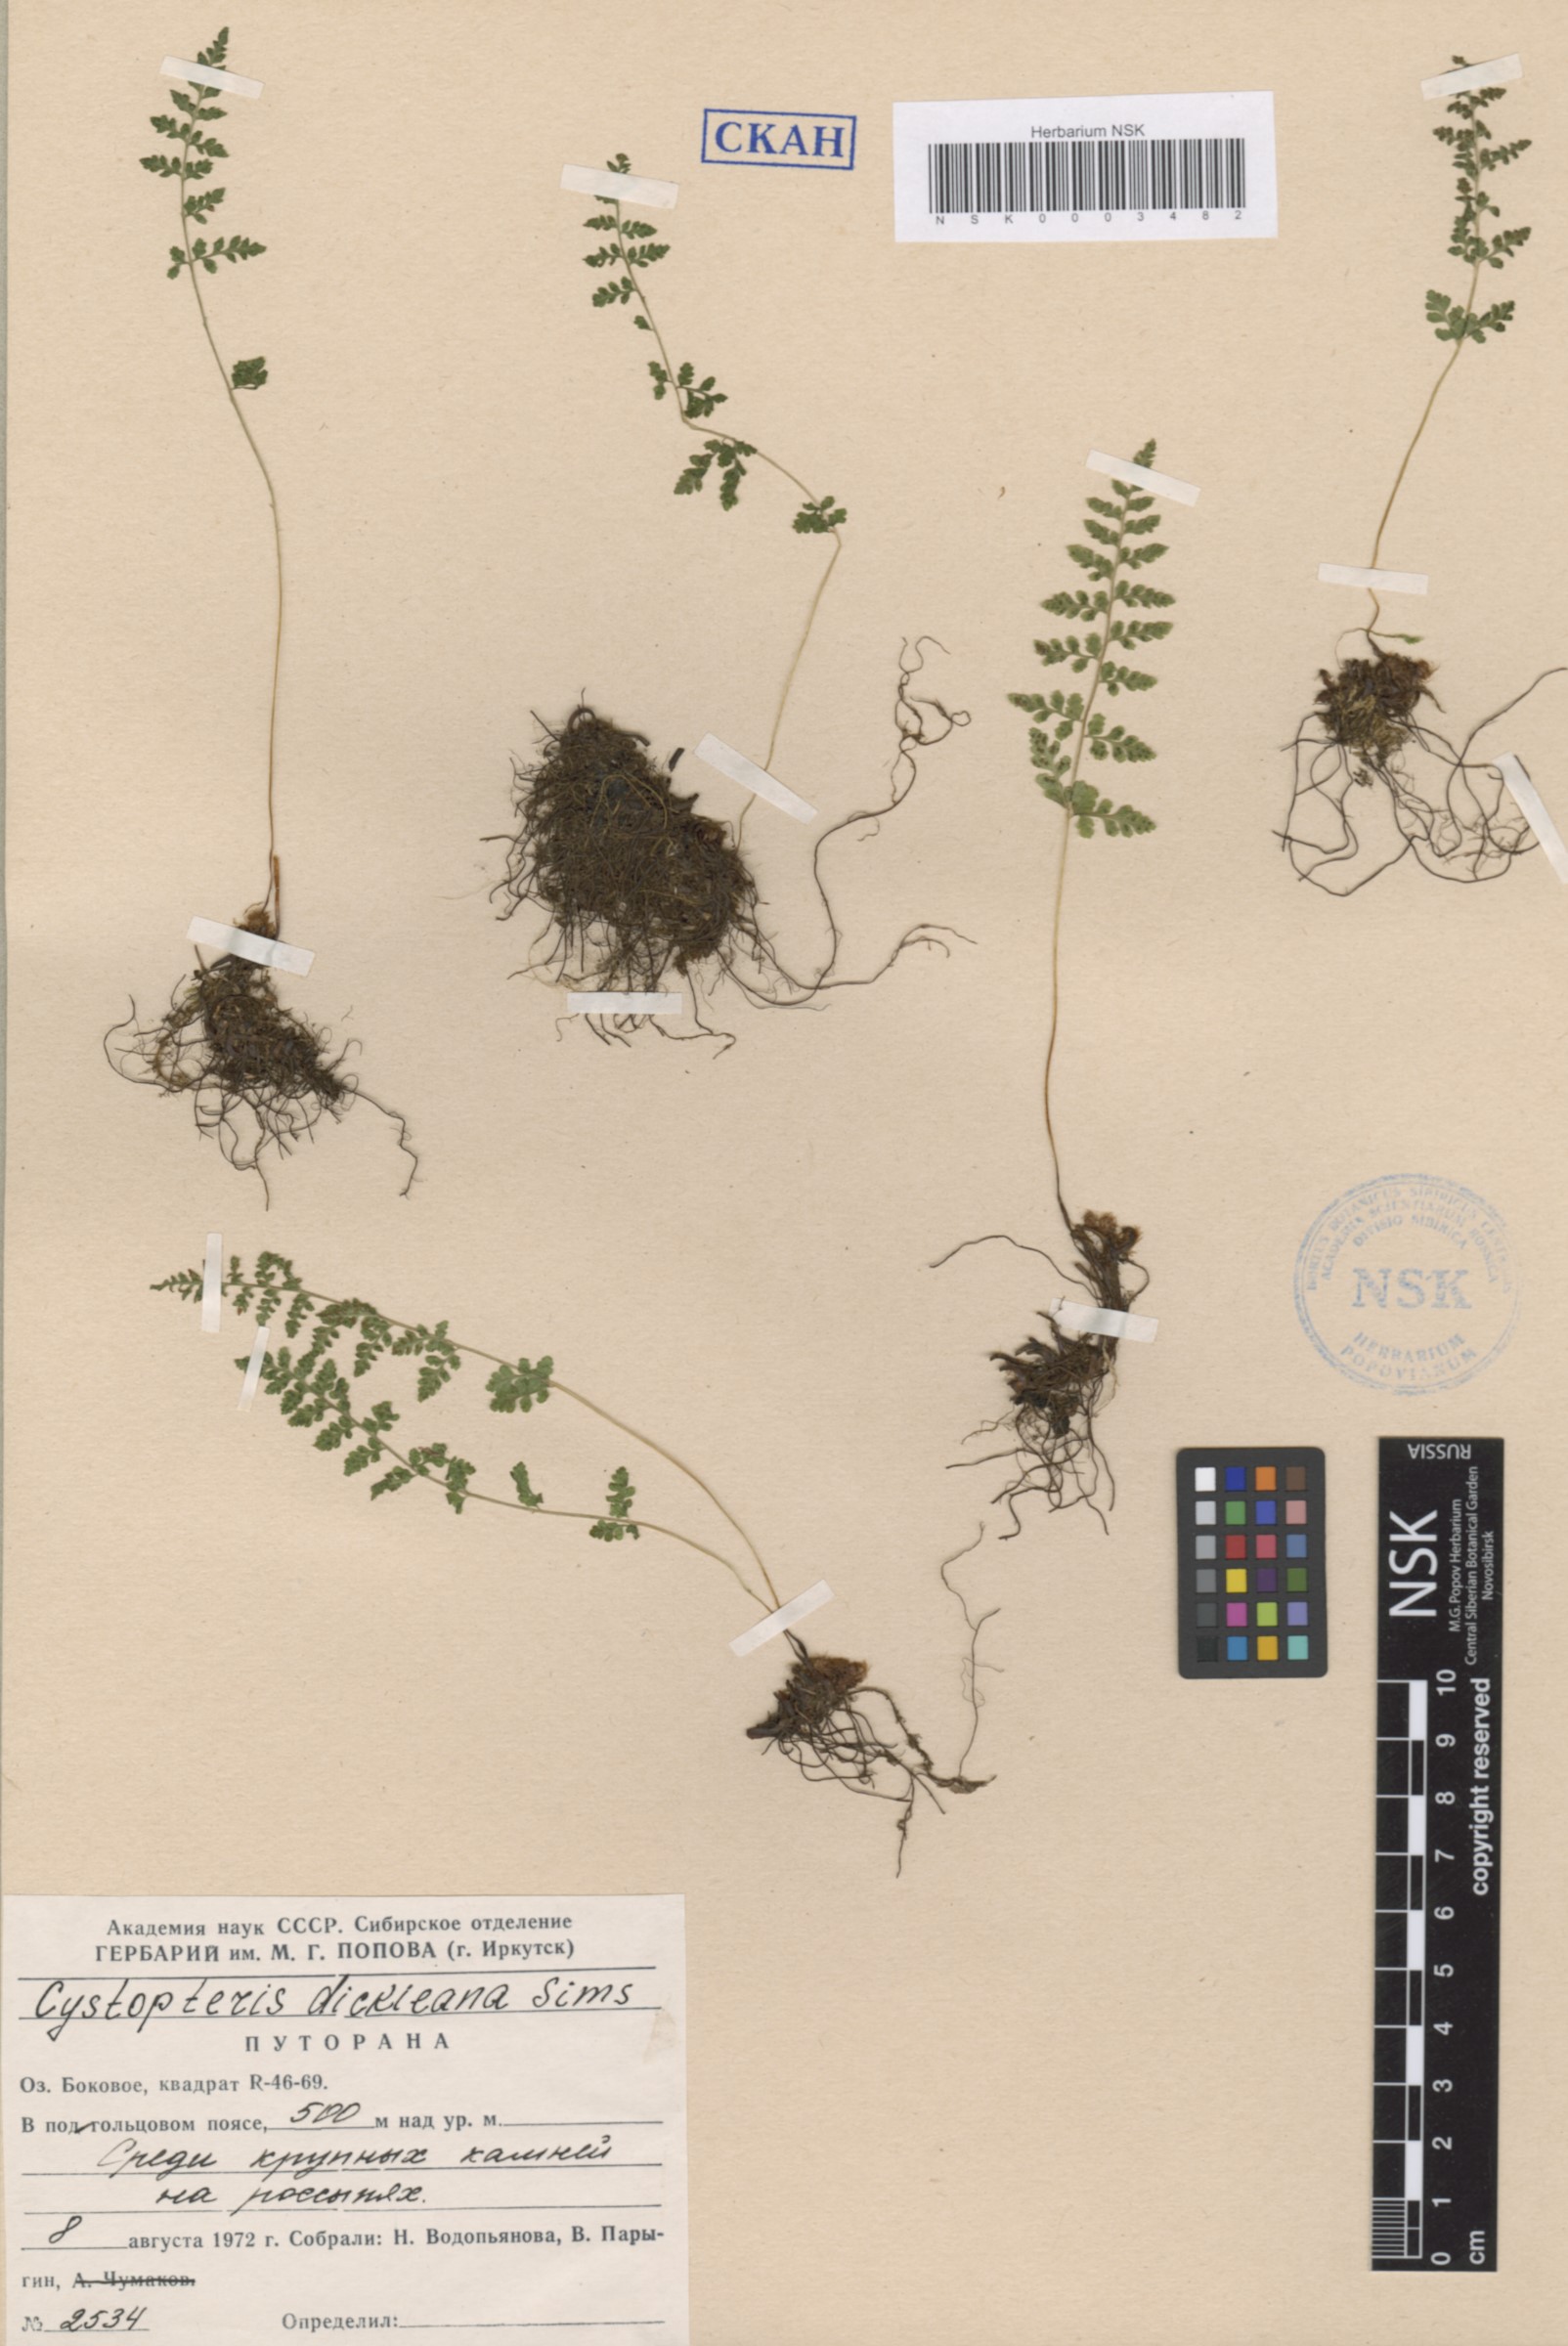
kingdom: Plantae
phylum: Tracheophyta
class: Polypodiopsida
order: Polypodiales
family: Cystopteridaceae
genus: Cystopteris
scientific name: Cystopteris dickieana
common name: Dickie's bladder-fern
